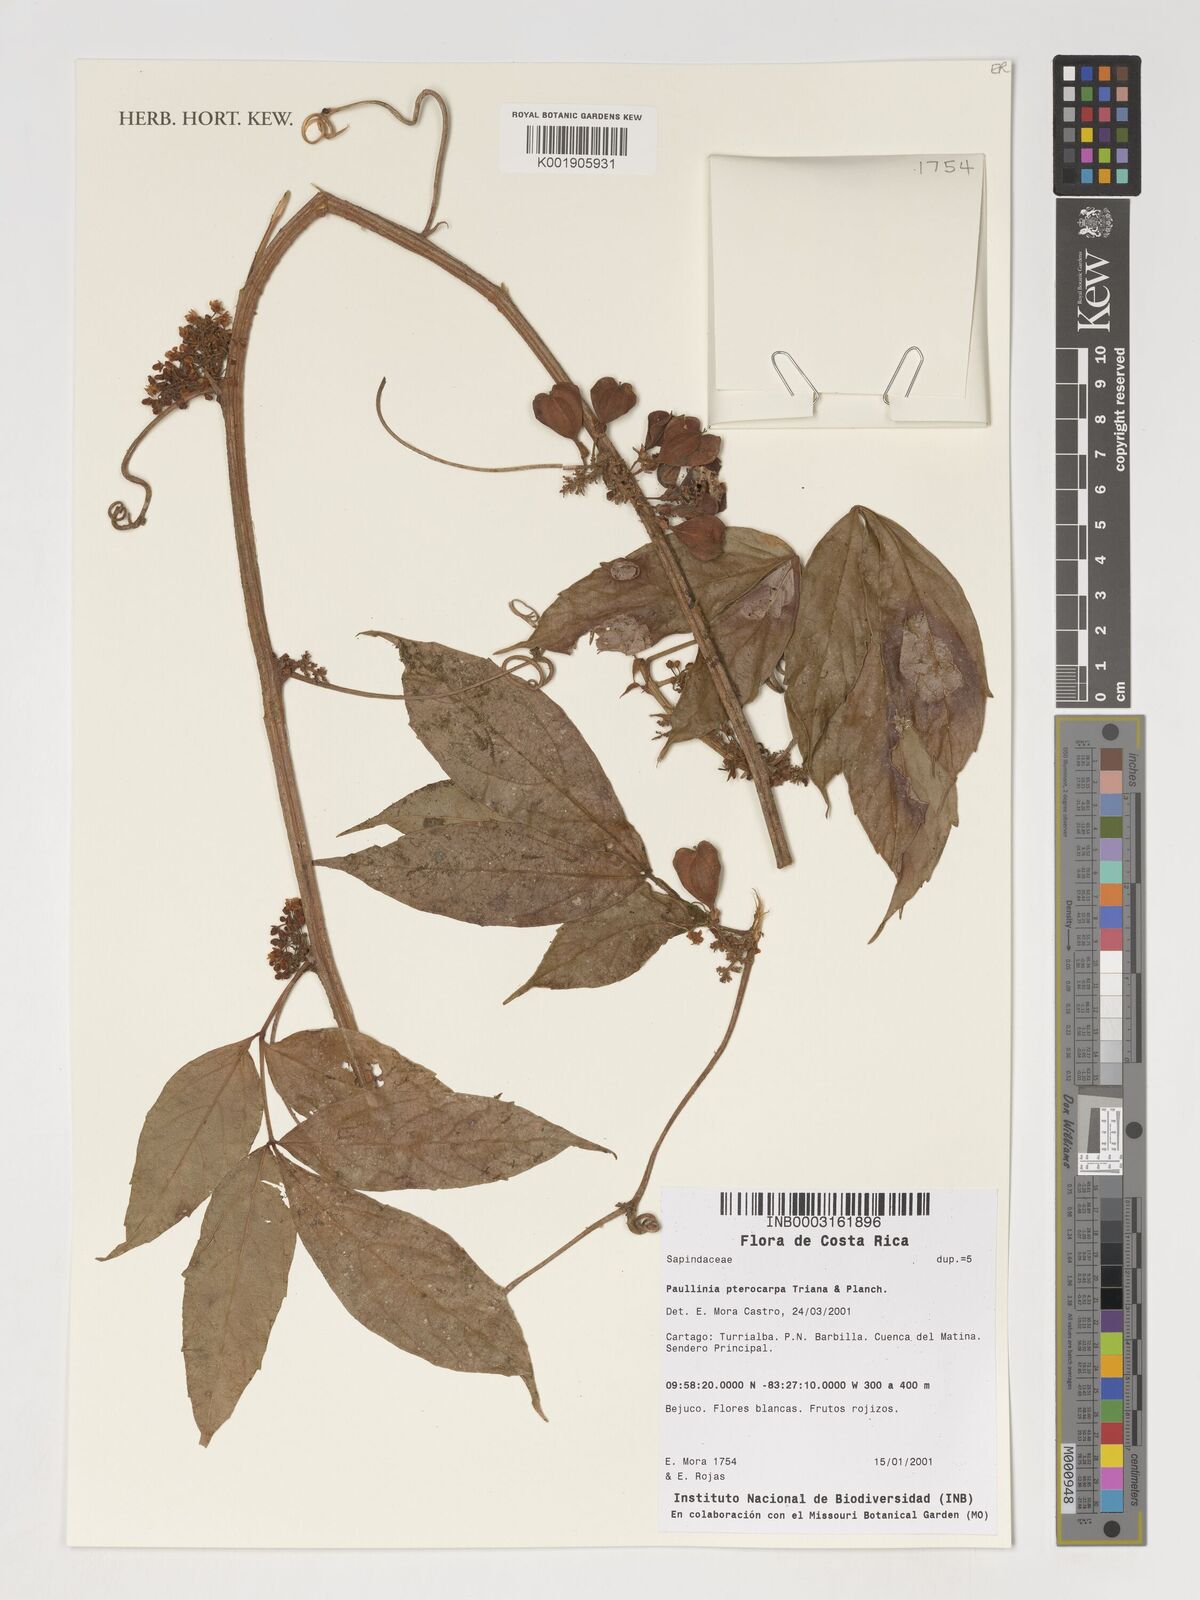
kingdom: Plantae
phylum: Tracheophyta
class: Magnoliopsida
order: Sapindales
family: Sapindaceae
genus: Paullinia
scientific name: Paullinia pterocarpa
